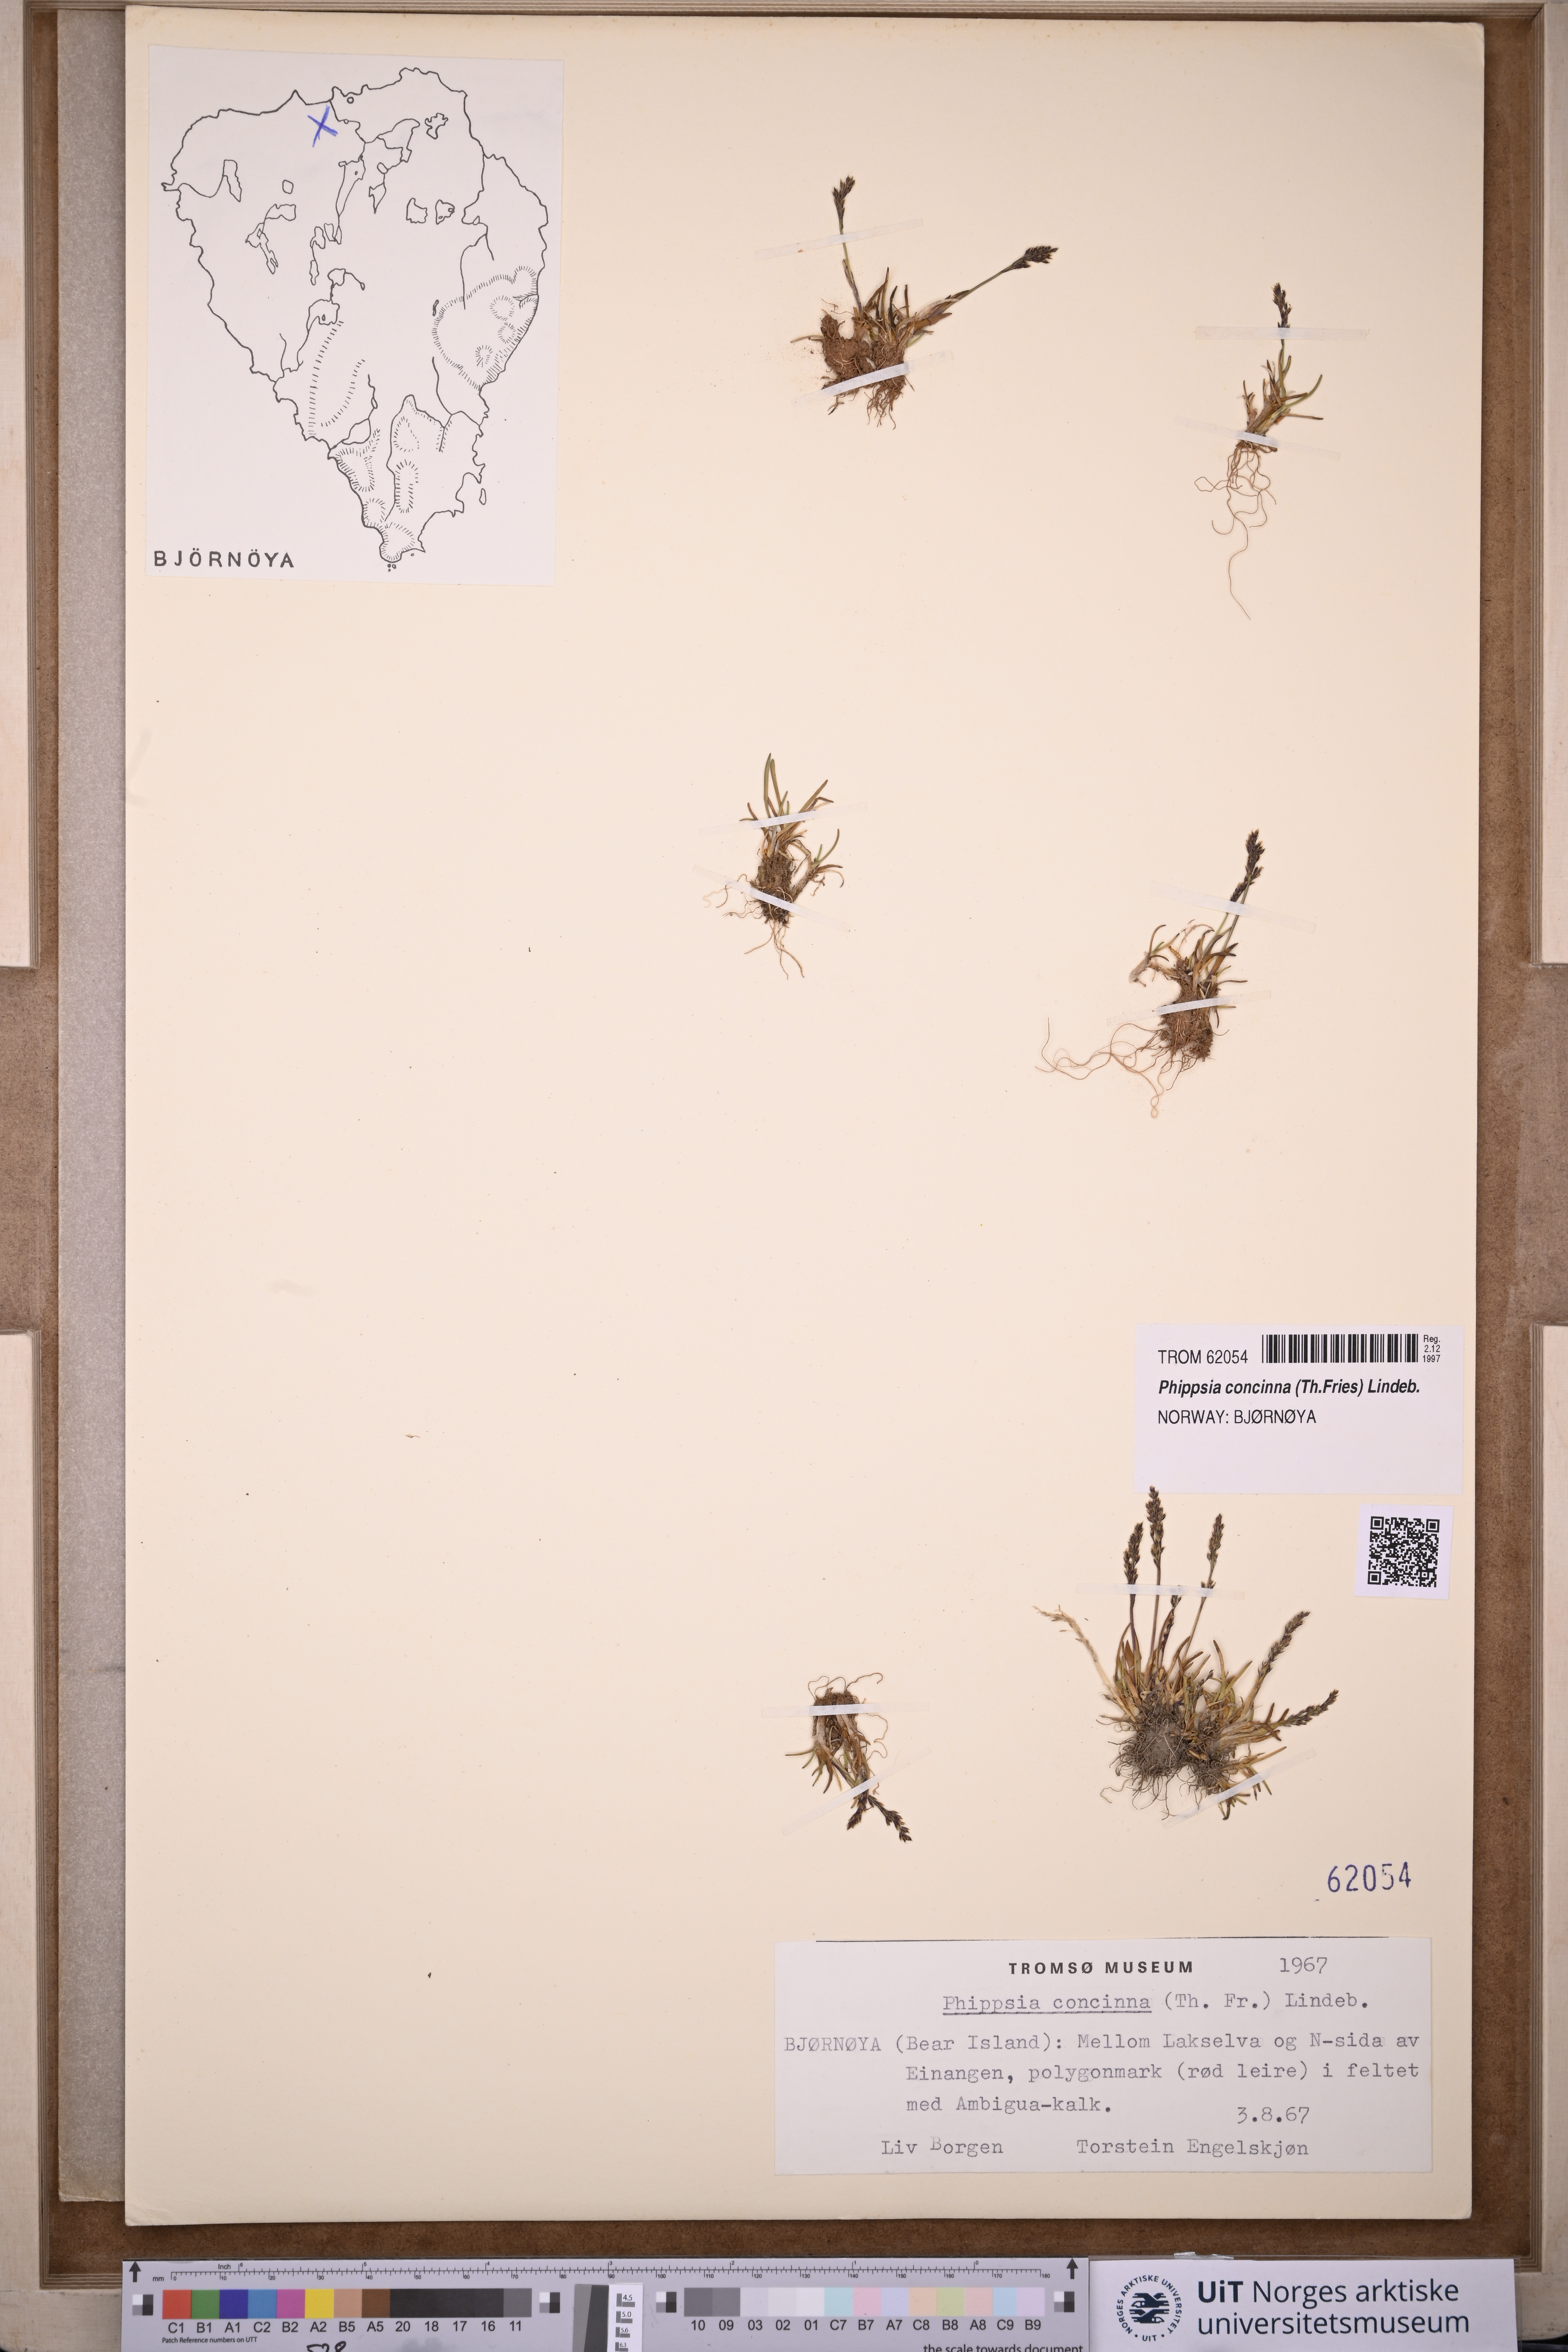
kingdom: Plantae
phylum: Tracheophyta
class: Liliopsida
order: Poales
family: Poaceae
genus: Phippsia
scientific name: Phippsia concinna
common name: Snowgrass
